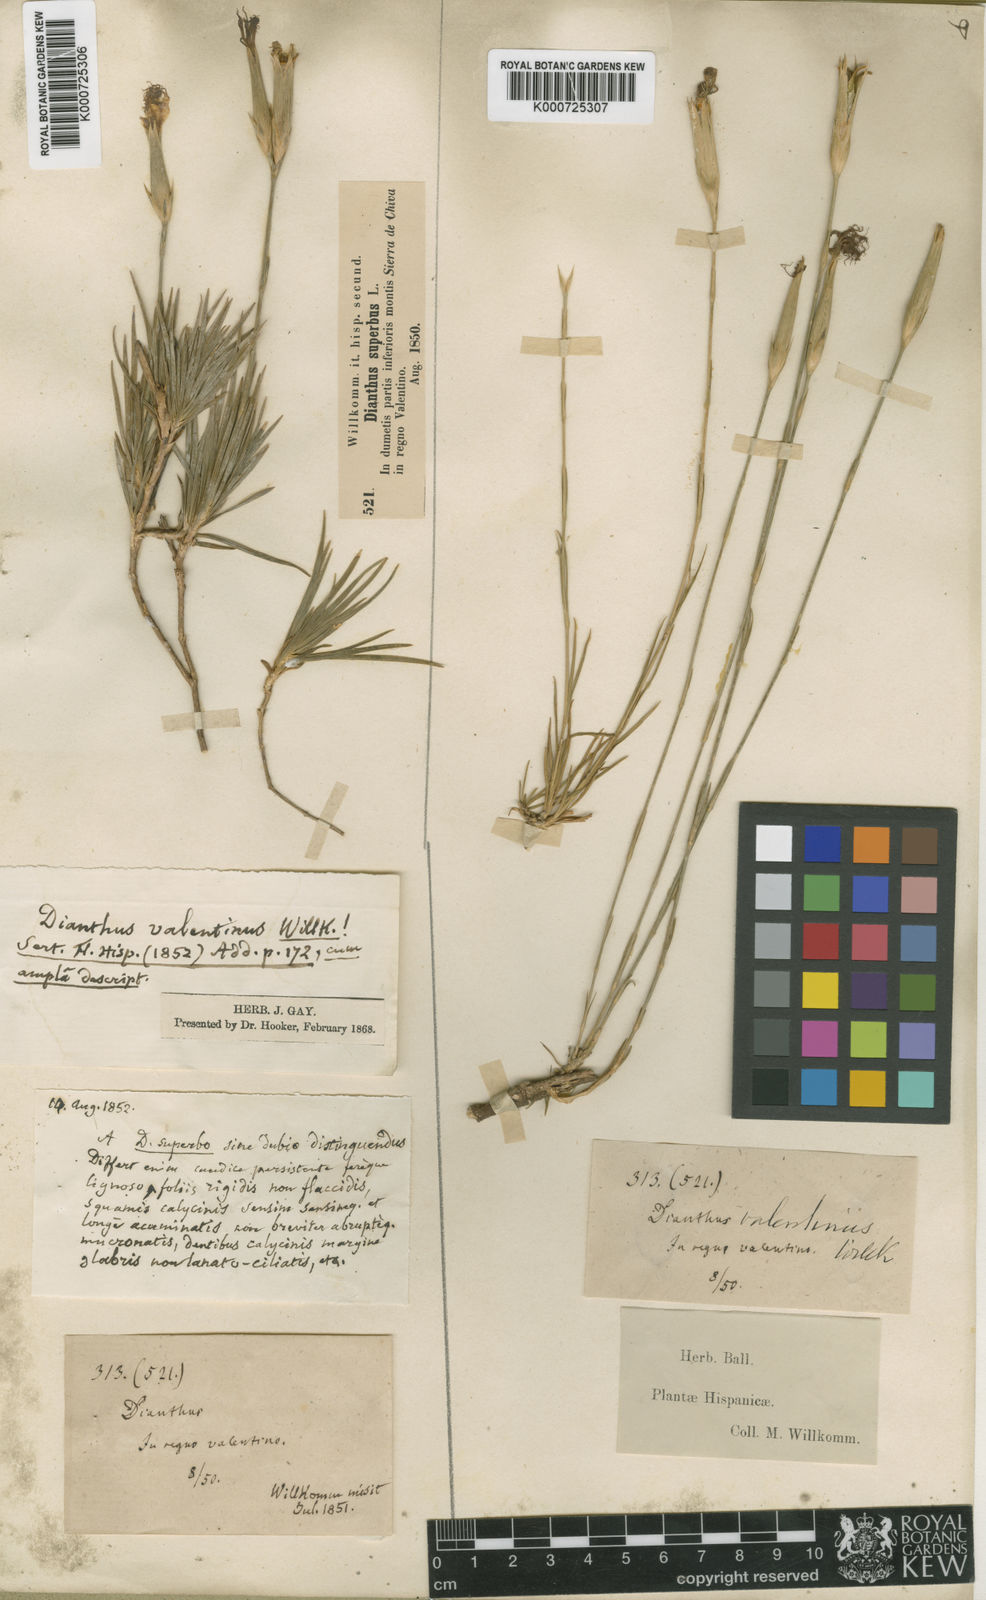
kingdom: Plantae
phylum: Tracheophyta
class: Magnoliopsida
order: Caryophyllales
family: Caryophyllaceae
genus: Dianthus
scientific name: Dianthus broteri
